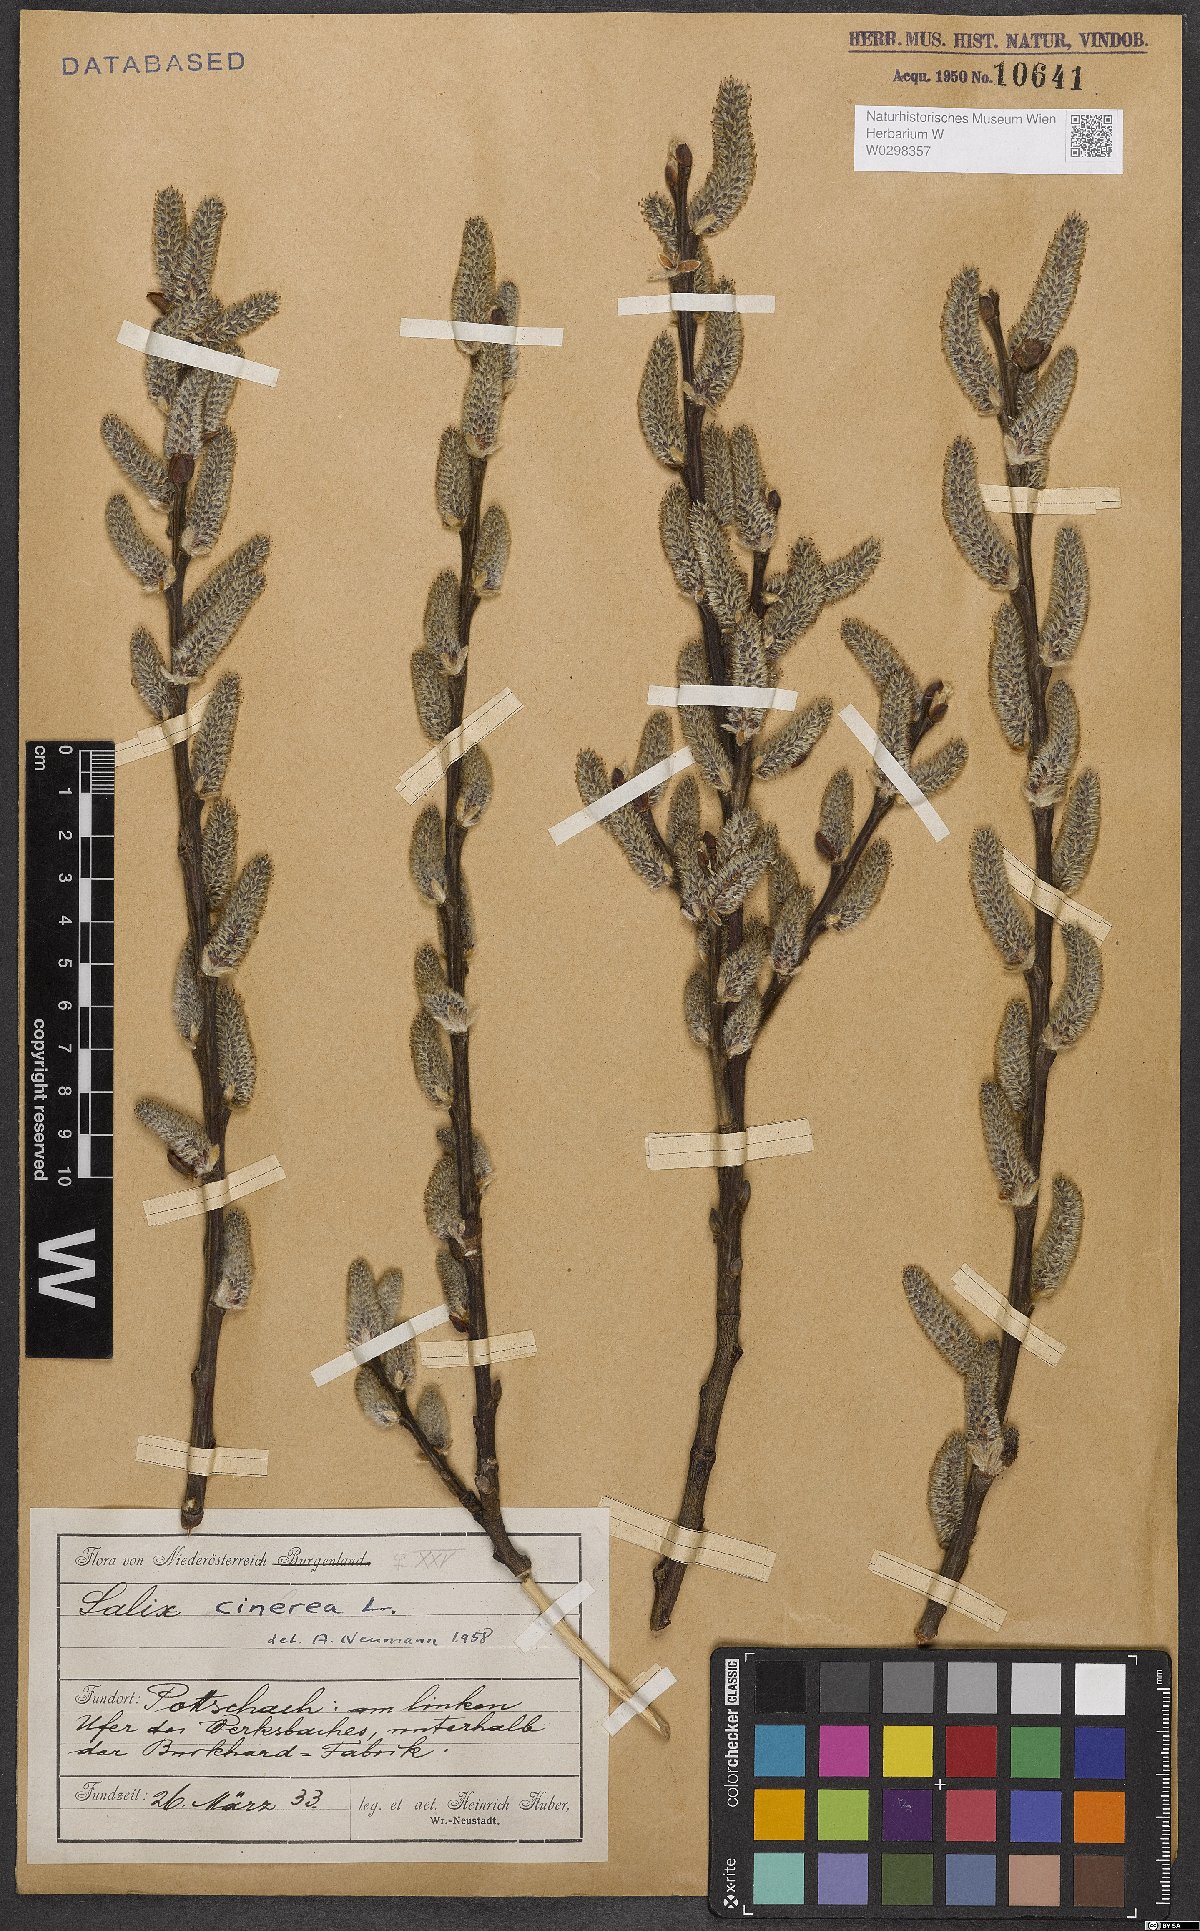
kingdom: Plantae
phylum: Tracheophyta
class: Magnoliopsida
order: Malpighiales
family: Salicaceae
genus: Salix
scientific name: Salix cinerea
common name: Common sallow
